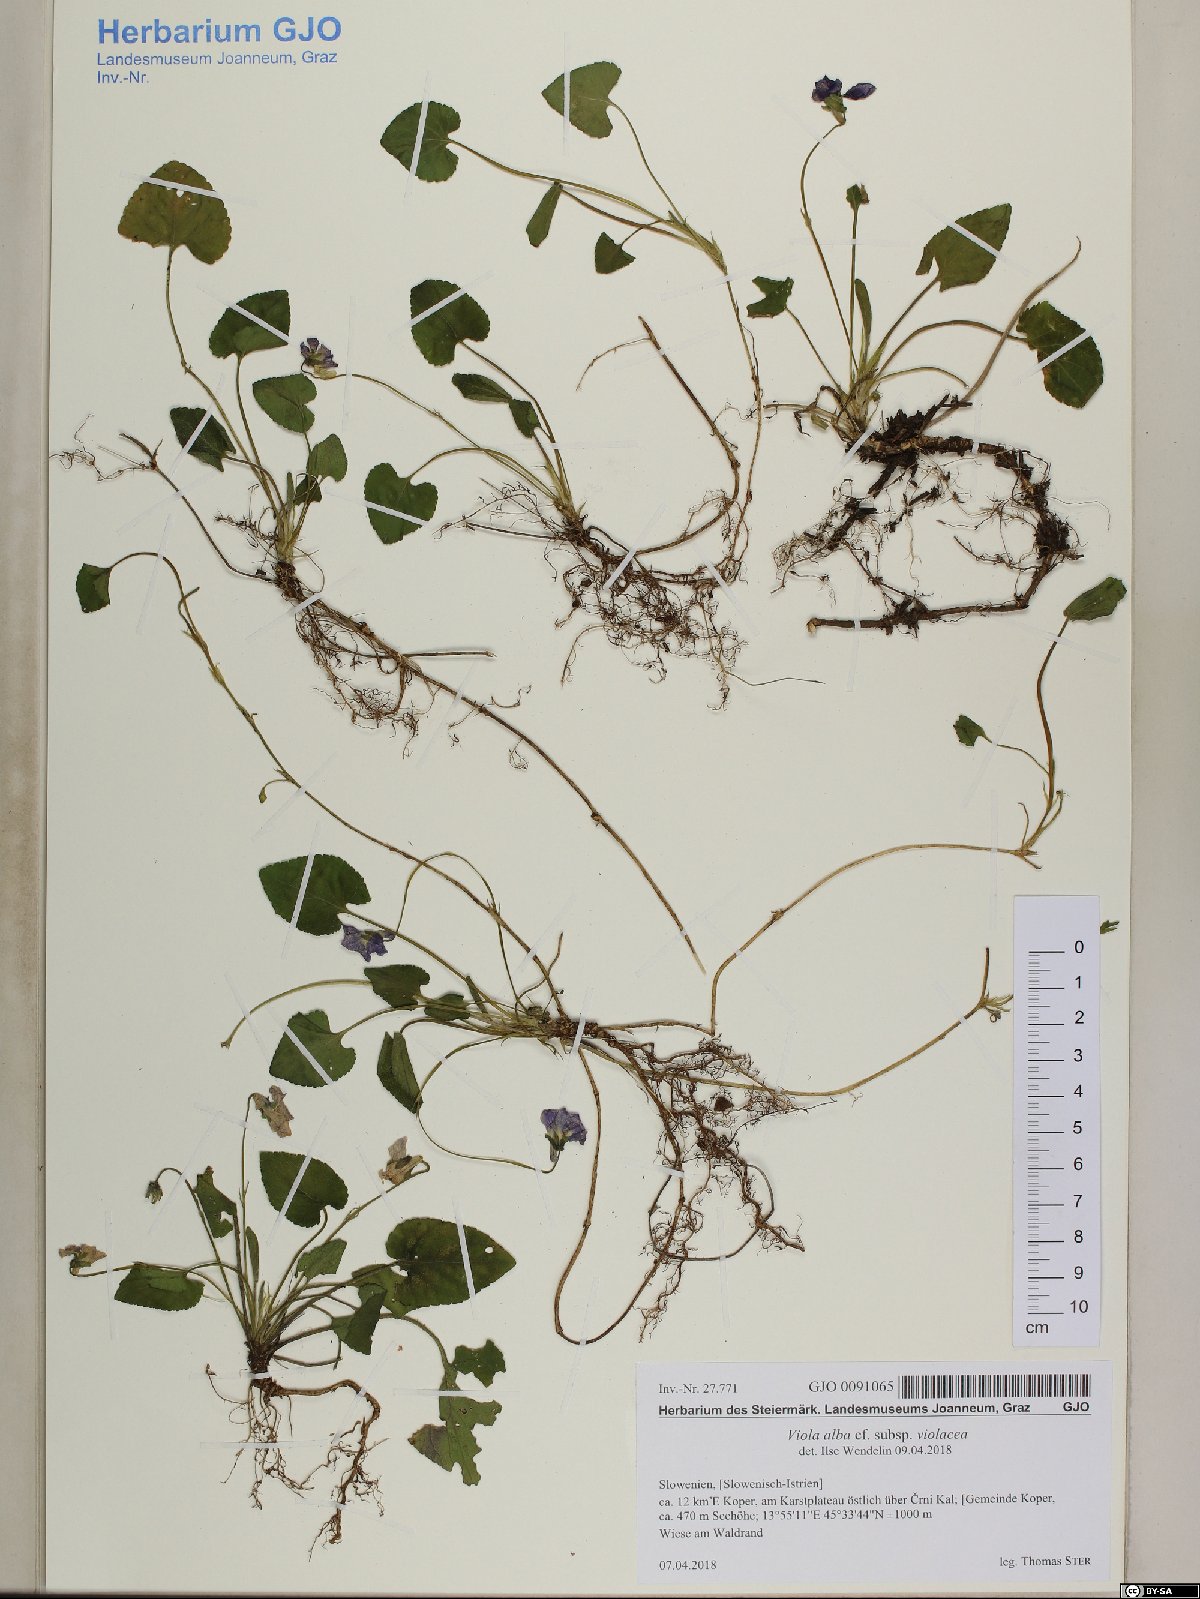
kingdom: Plantae
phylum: Tracheophyta
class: Magnoliopsida
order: Malpighiales
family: Violaceae
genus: Viola
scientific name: Viola alba
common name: White violet
